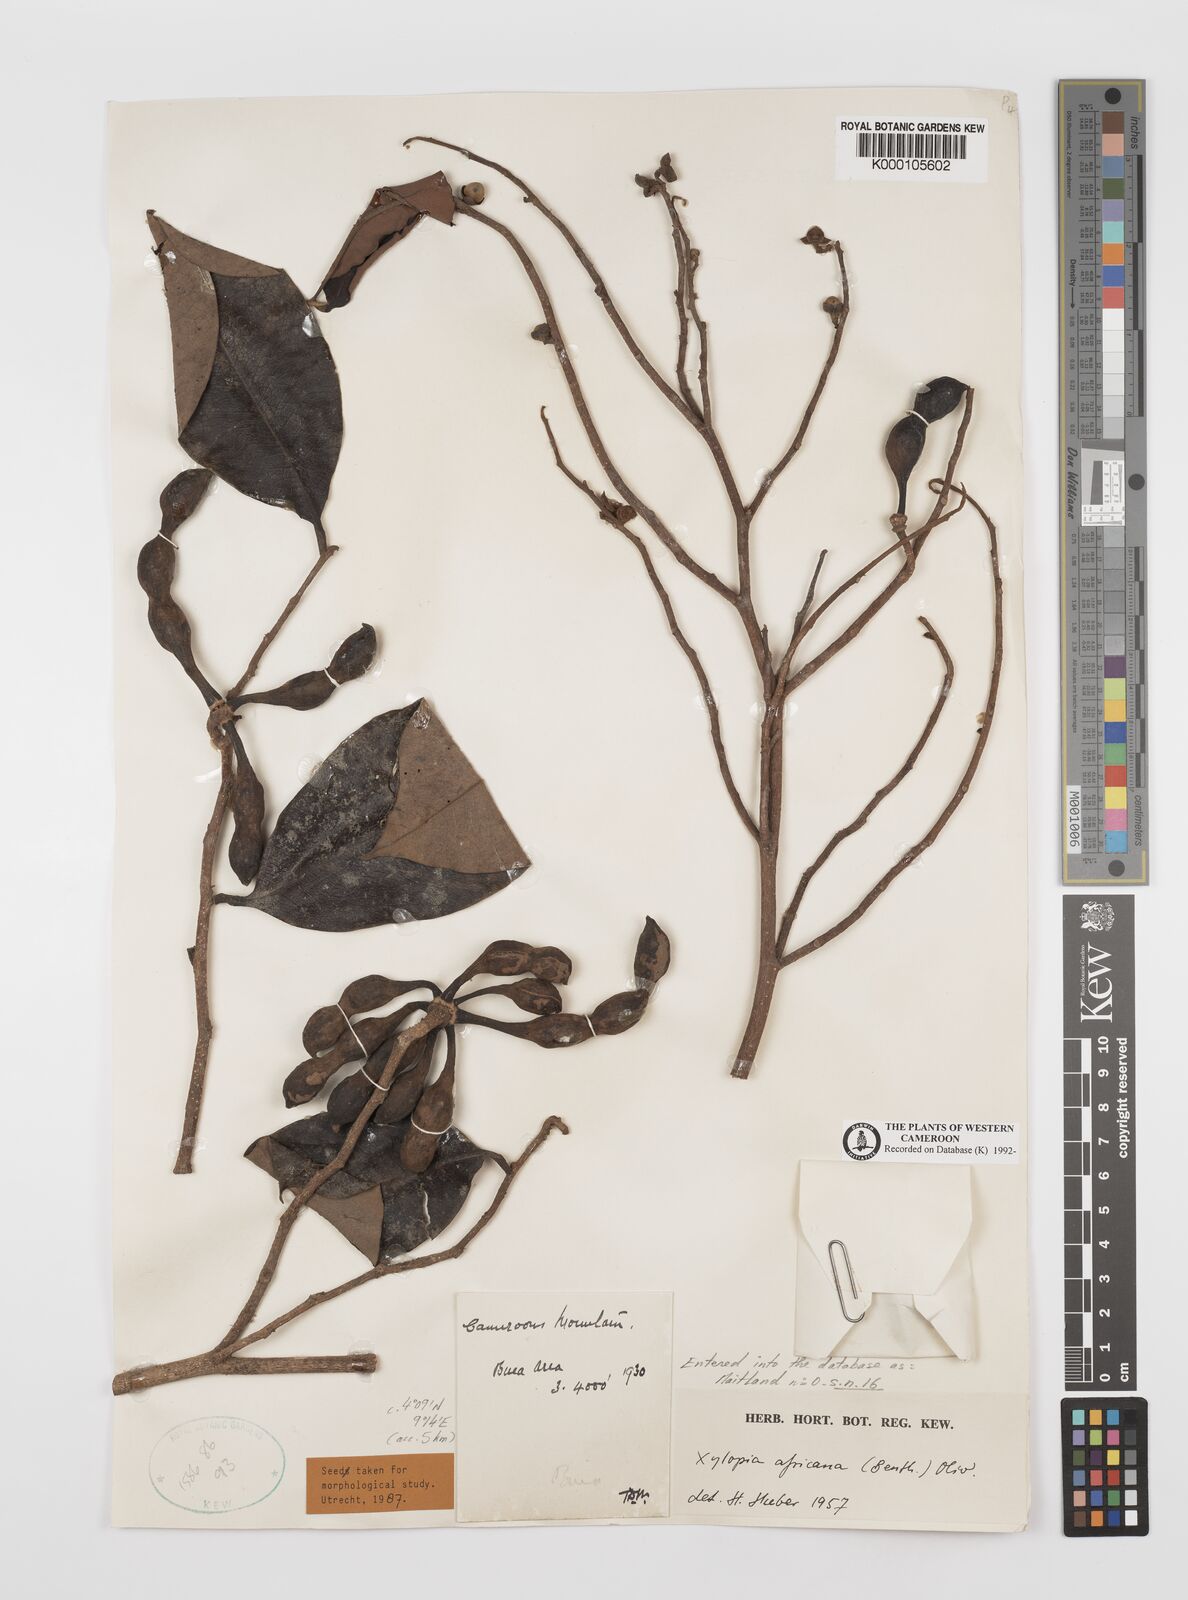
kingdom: Plantae
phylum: Tracheophyta
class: Magnoliopsida
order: Magnoliales
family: Annonaceae
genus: Xylopia
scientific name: Xylopia africana
